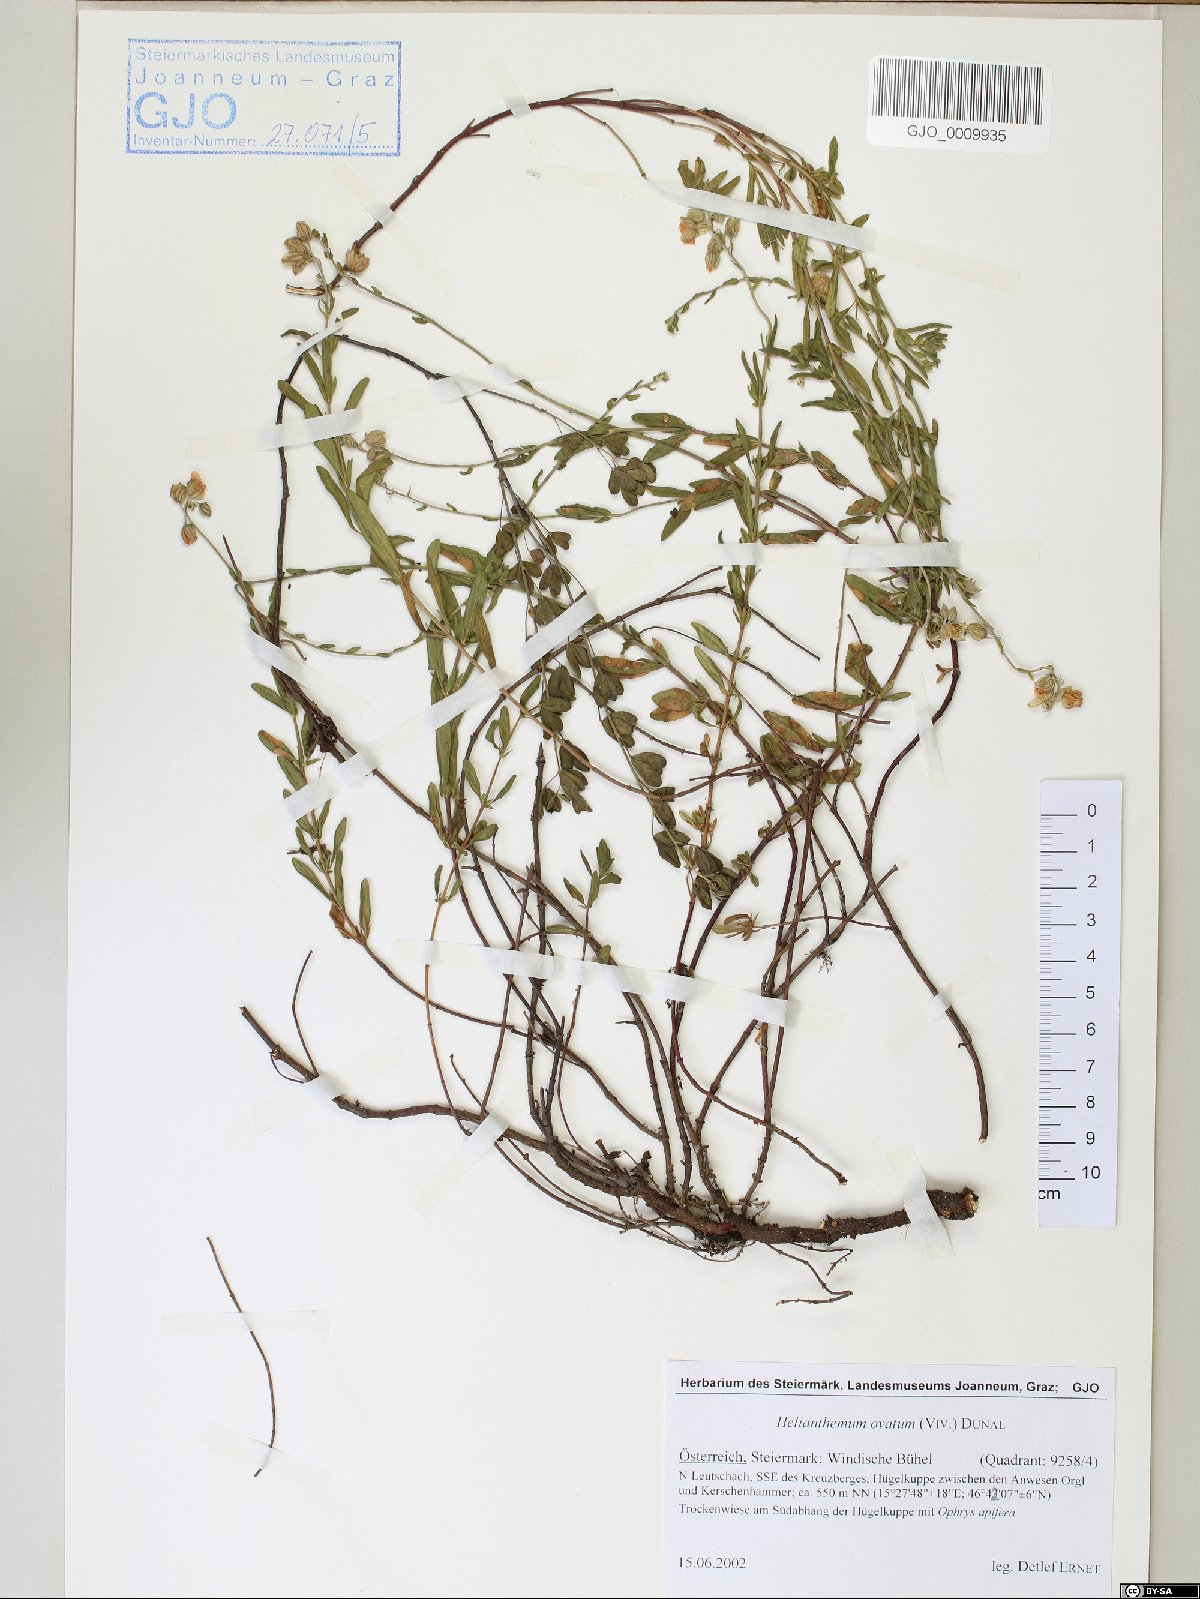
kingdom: Plantae
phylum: Tracheophyta
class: Magnoliopsida
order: Malvales
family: Cistaceae
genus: Helianthemum
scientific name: Helianthemum nummularium
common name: Common rock-rose
